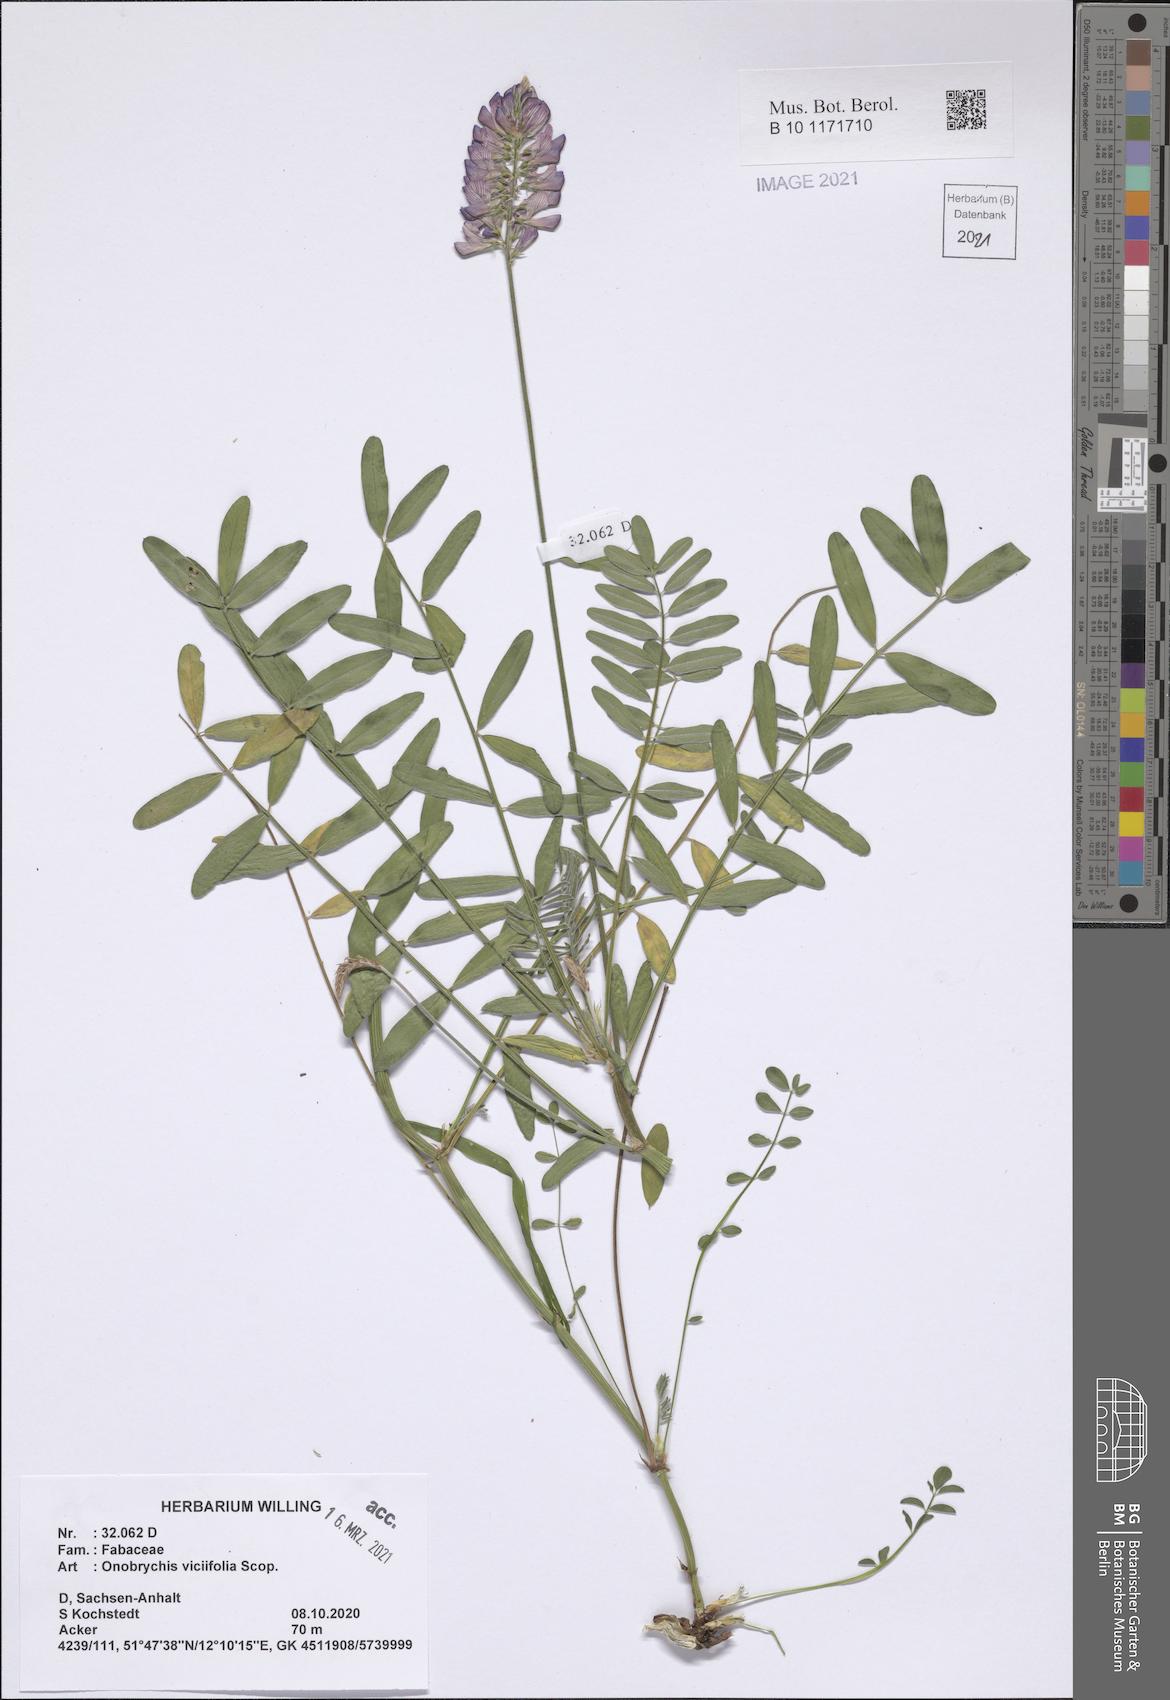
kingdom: Plantae
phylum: Tracheophyta
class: Magnoliopsida
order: Fabales
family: Fabaceae
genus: Onobrychis
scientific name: Onobrychis viciifolia
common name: Sainfoin
